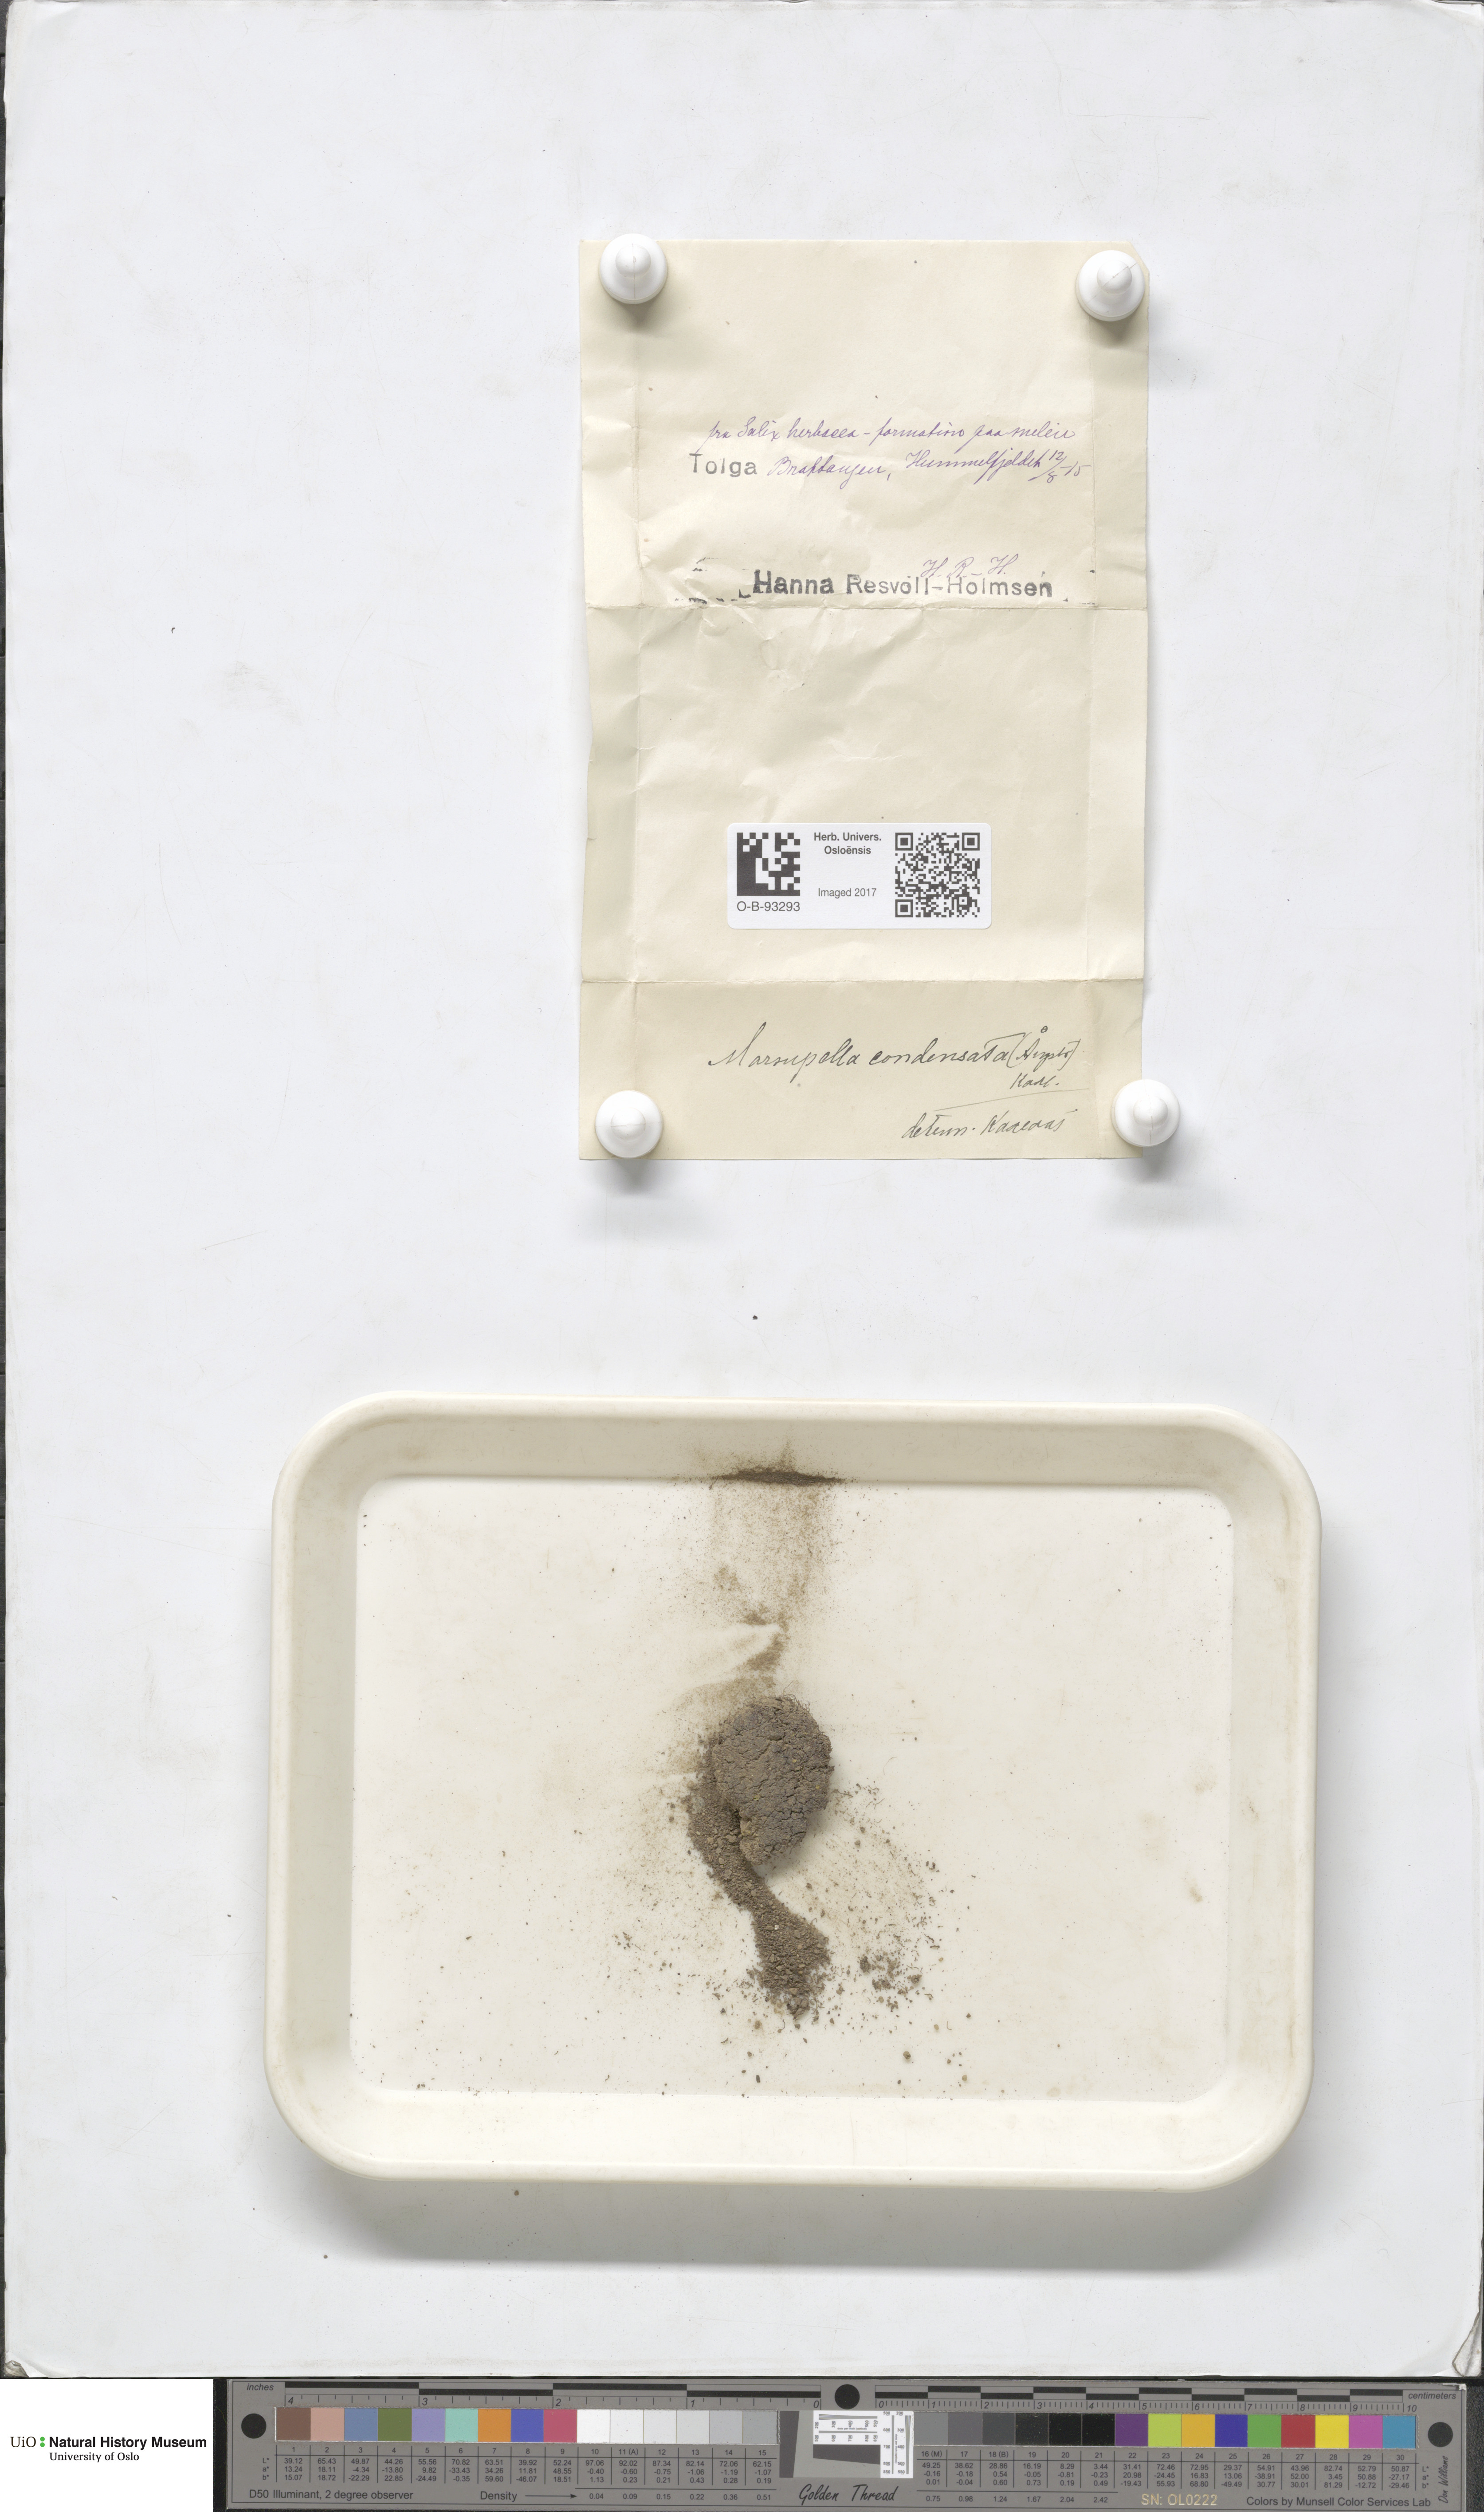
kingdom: Plantae
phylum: Marchantiophyta
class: Jungermanniopsida
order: Jungermanniales
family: Gymnomitriaceae
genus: Gymnomitrion
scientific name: Gymnomitrion brevissimum
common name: Snow rustwort
